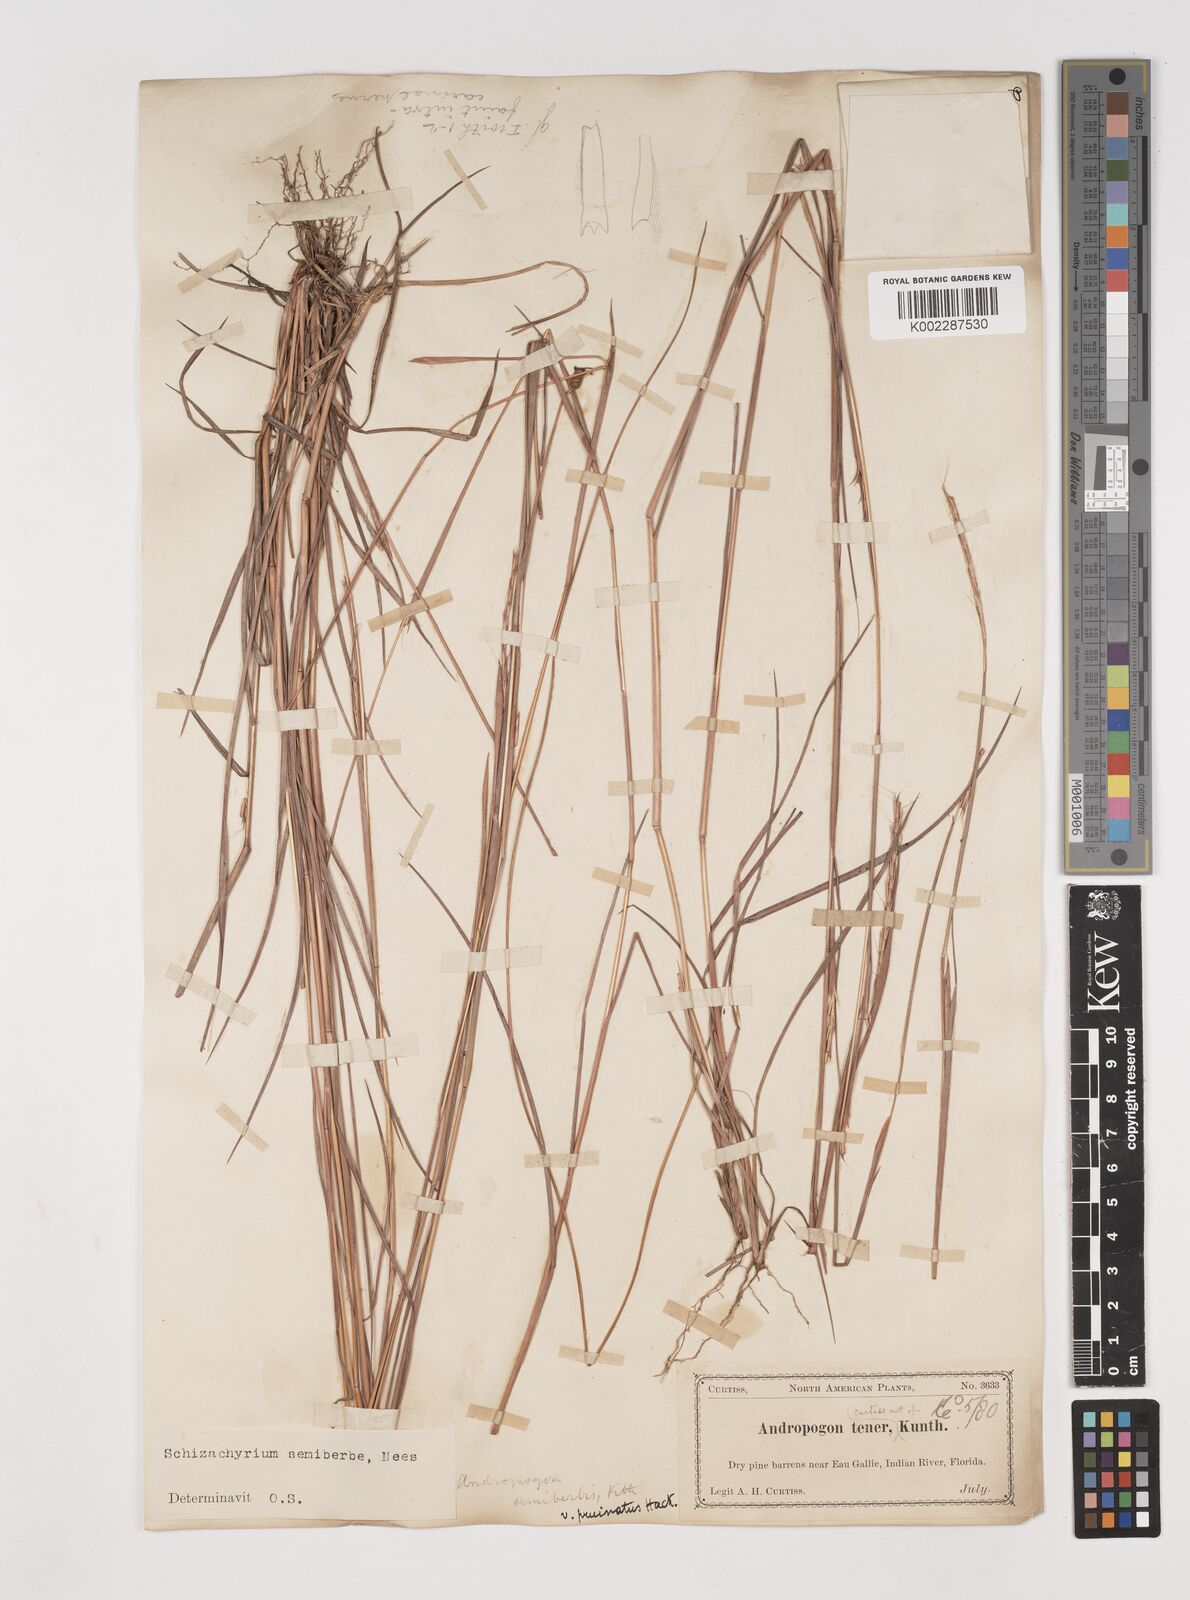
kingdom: Plantae
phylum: Tracheophyta
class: Liliopsida
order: Poales
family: Poaceae
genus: Schizachyrium
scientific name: Schizachyrium sanguineum
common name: Crimson bluestem
